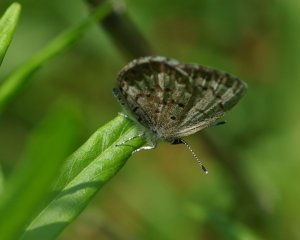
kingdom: Animalia
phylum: Arthropoda
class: Insecta
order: Lepidoptera
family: Lycaenidae
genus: Celastrina
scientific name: Celastrina lucia
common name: Northern Spring Azure
